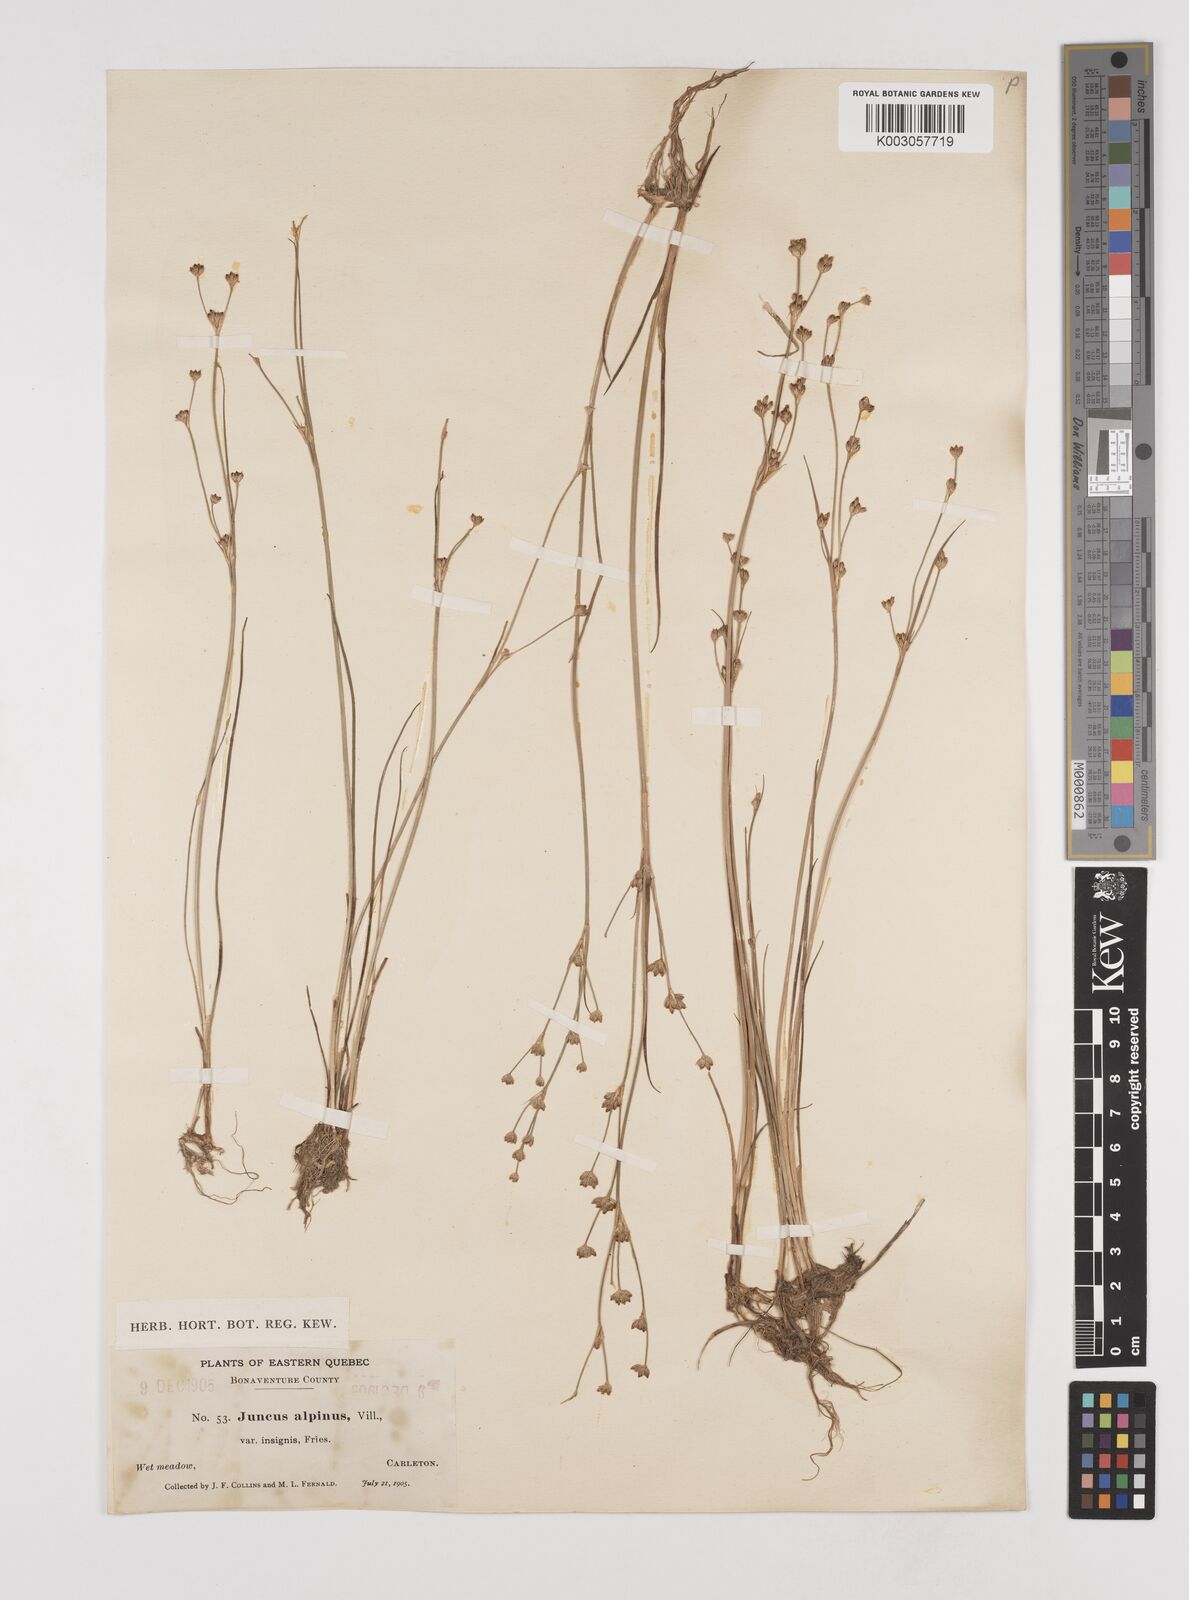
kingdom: Plantae
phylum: Tracheophyta
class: Liliopsida
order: Poales
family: Juncaceae
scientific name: Juncaceae
